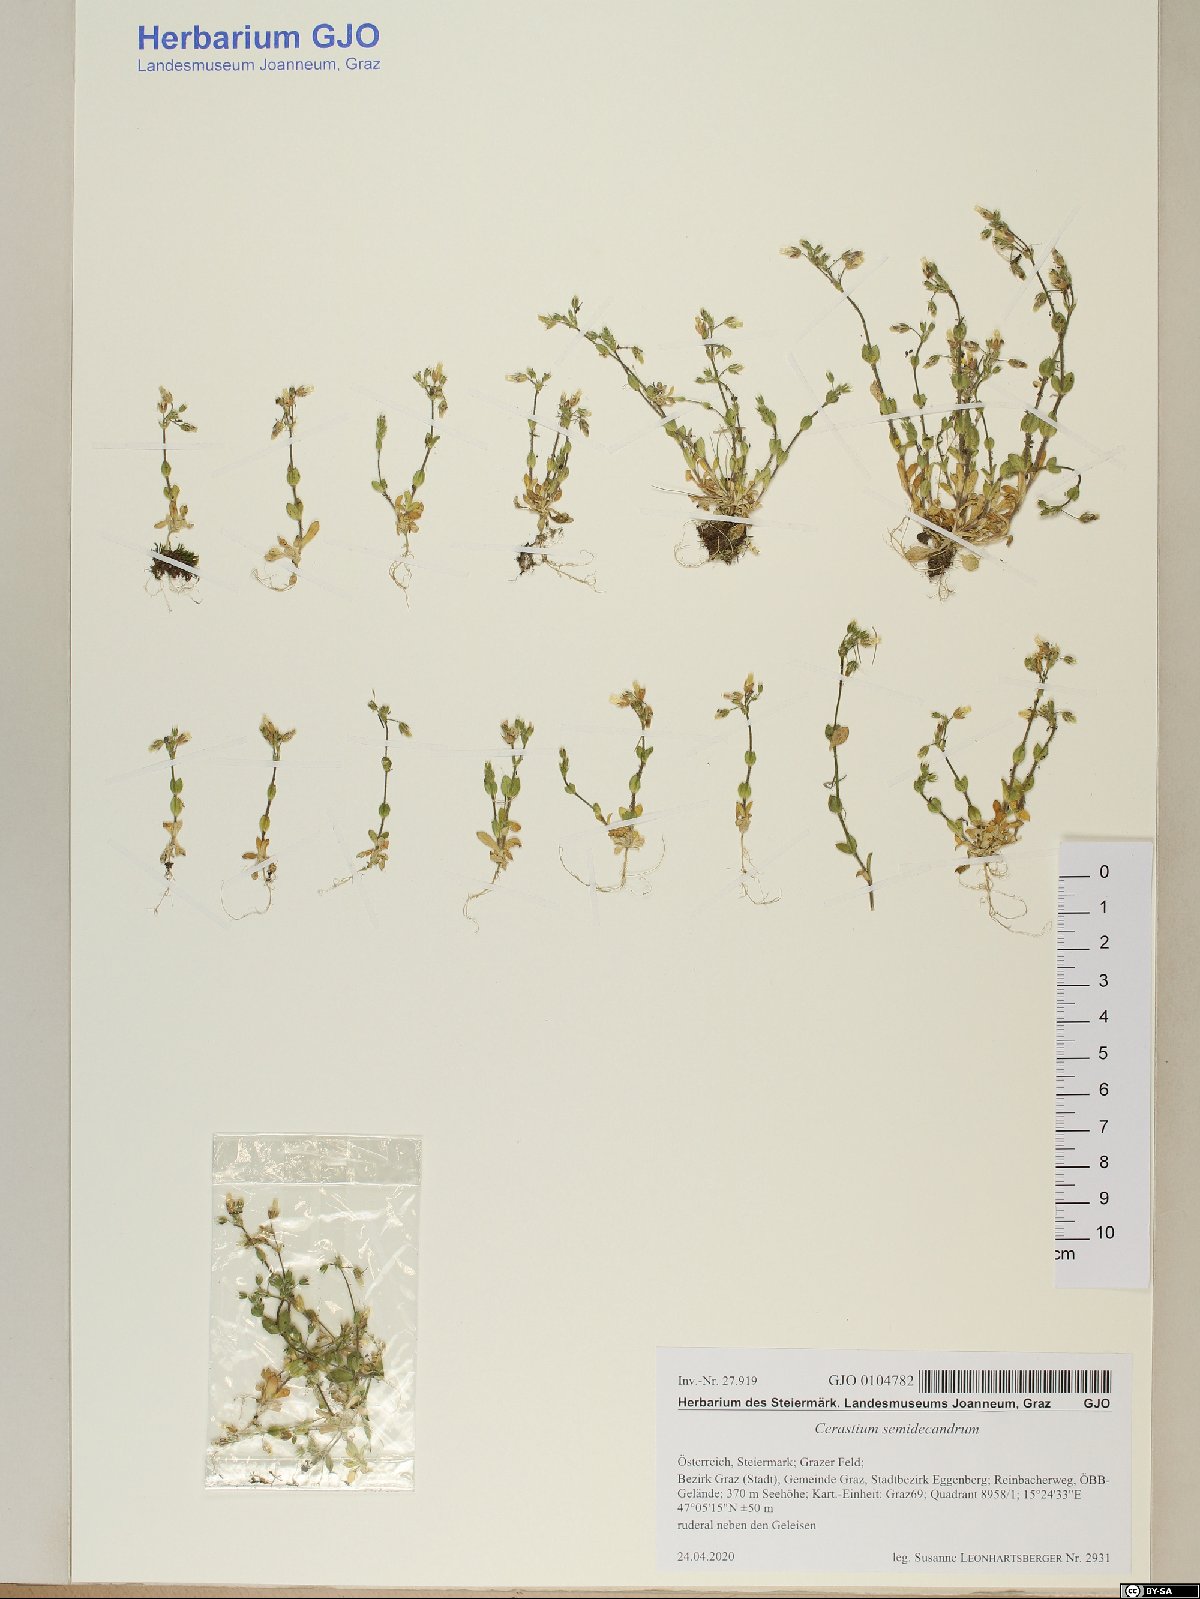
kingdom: Plantae
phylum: Tracheophyta
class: Magnoliopsida
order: Caryophyllales
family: Caryophyllaceae
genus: Cerastium
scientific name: Cerastium semidecandrum
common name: Little mouse-ear
